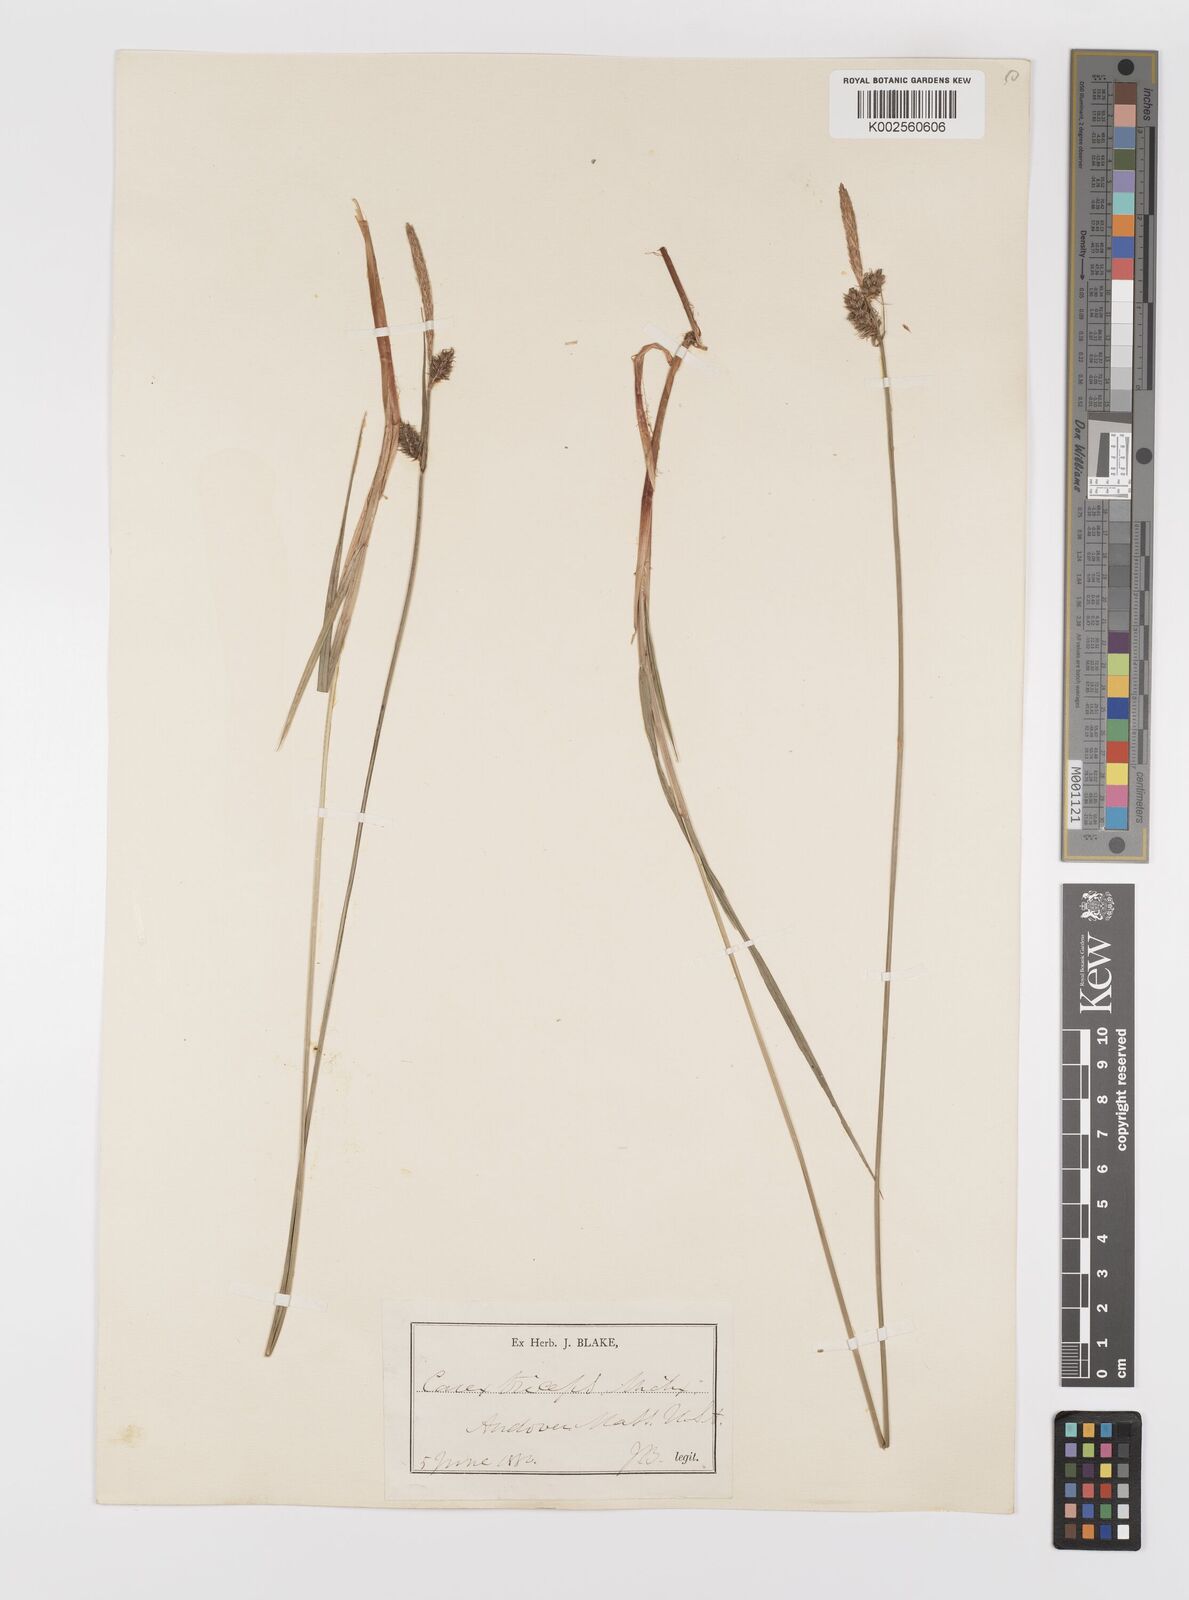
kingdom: Plantae
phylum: Tracheophyta
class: Liliopsida
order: Poales
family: Cyperaceae
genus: Carex
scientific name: Carex complanata
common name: Hirsute sedge
